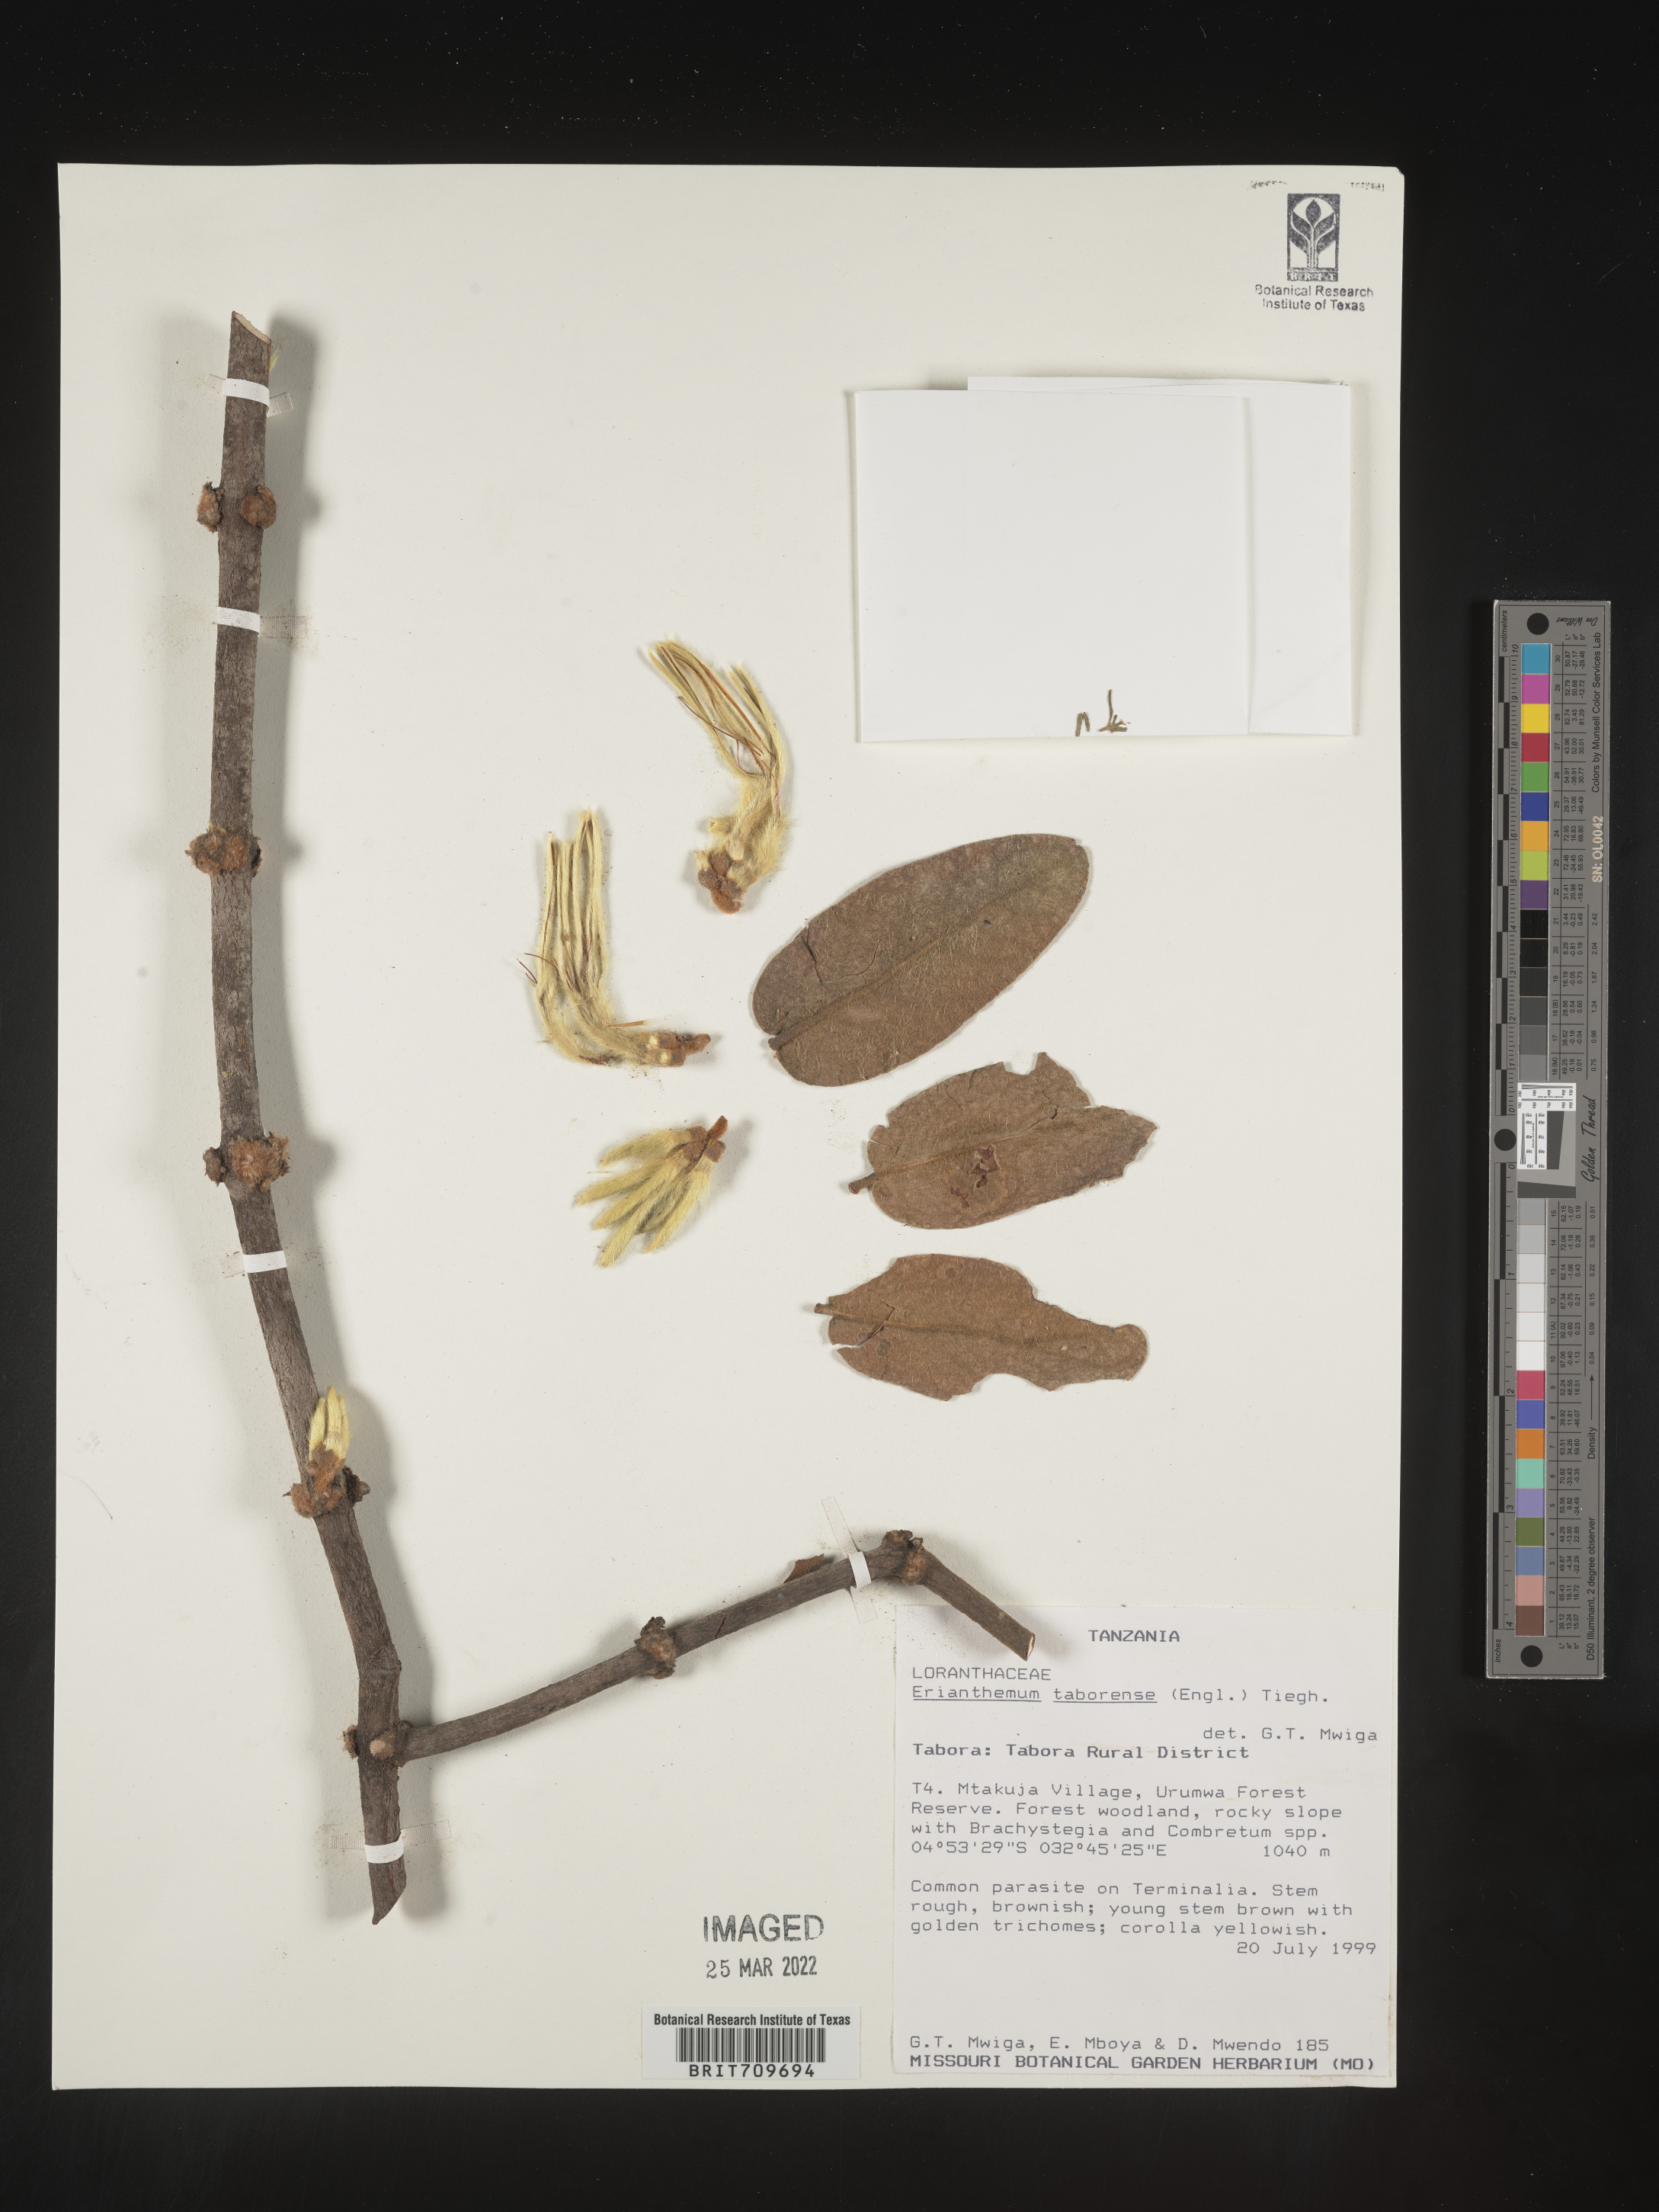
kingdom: Plantae
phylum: Tracheophyta
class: Magnoliopsida
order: Santalales
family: Loranthaceae
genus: Erianthemum
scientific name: Erianthemum
